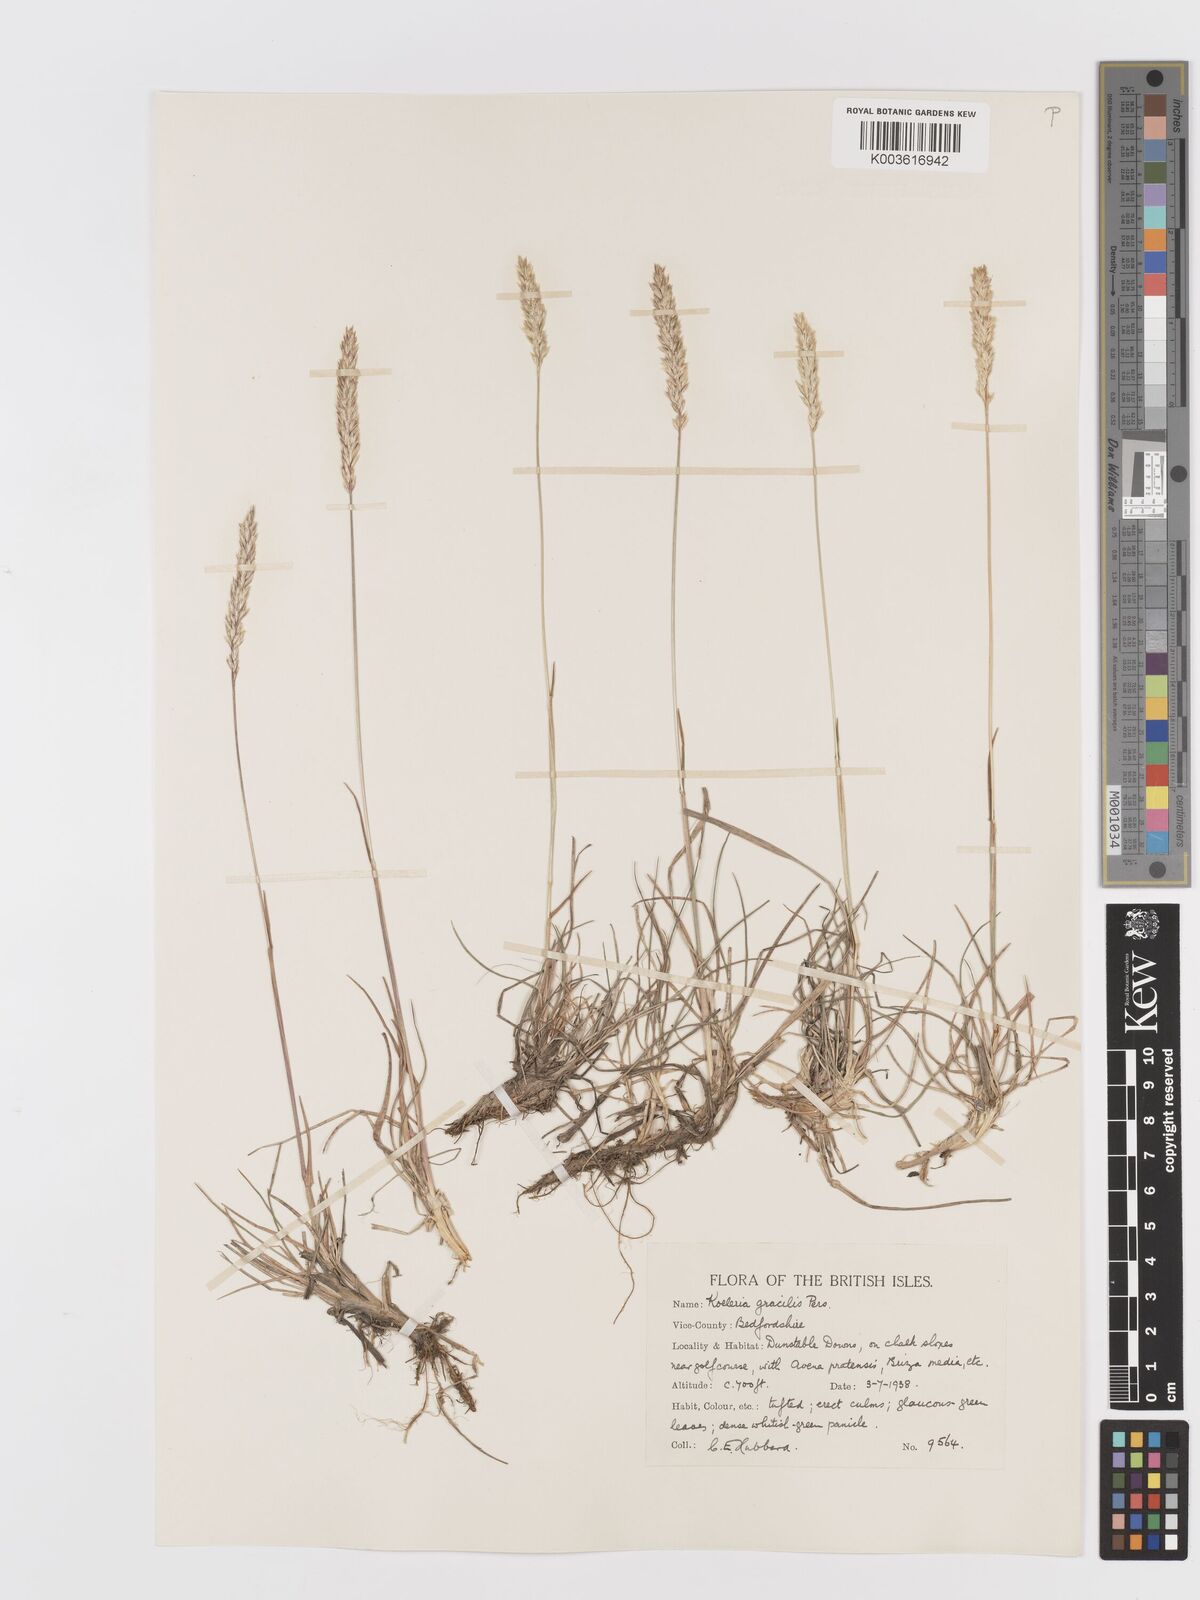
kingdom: Plantae
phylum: Tracheophyta
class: Liliopsida
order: Poales
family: Poaceae
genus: Koeleria
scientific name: Koeleria macrantha
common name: Crested hair-grass
